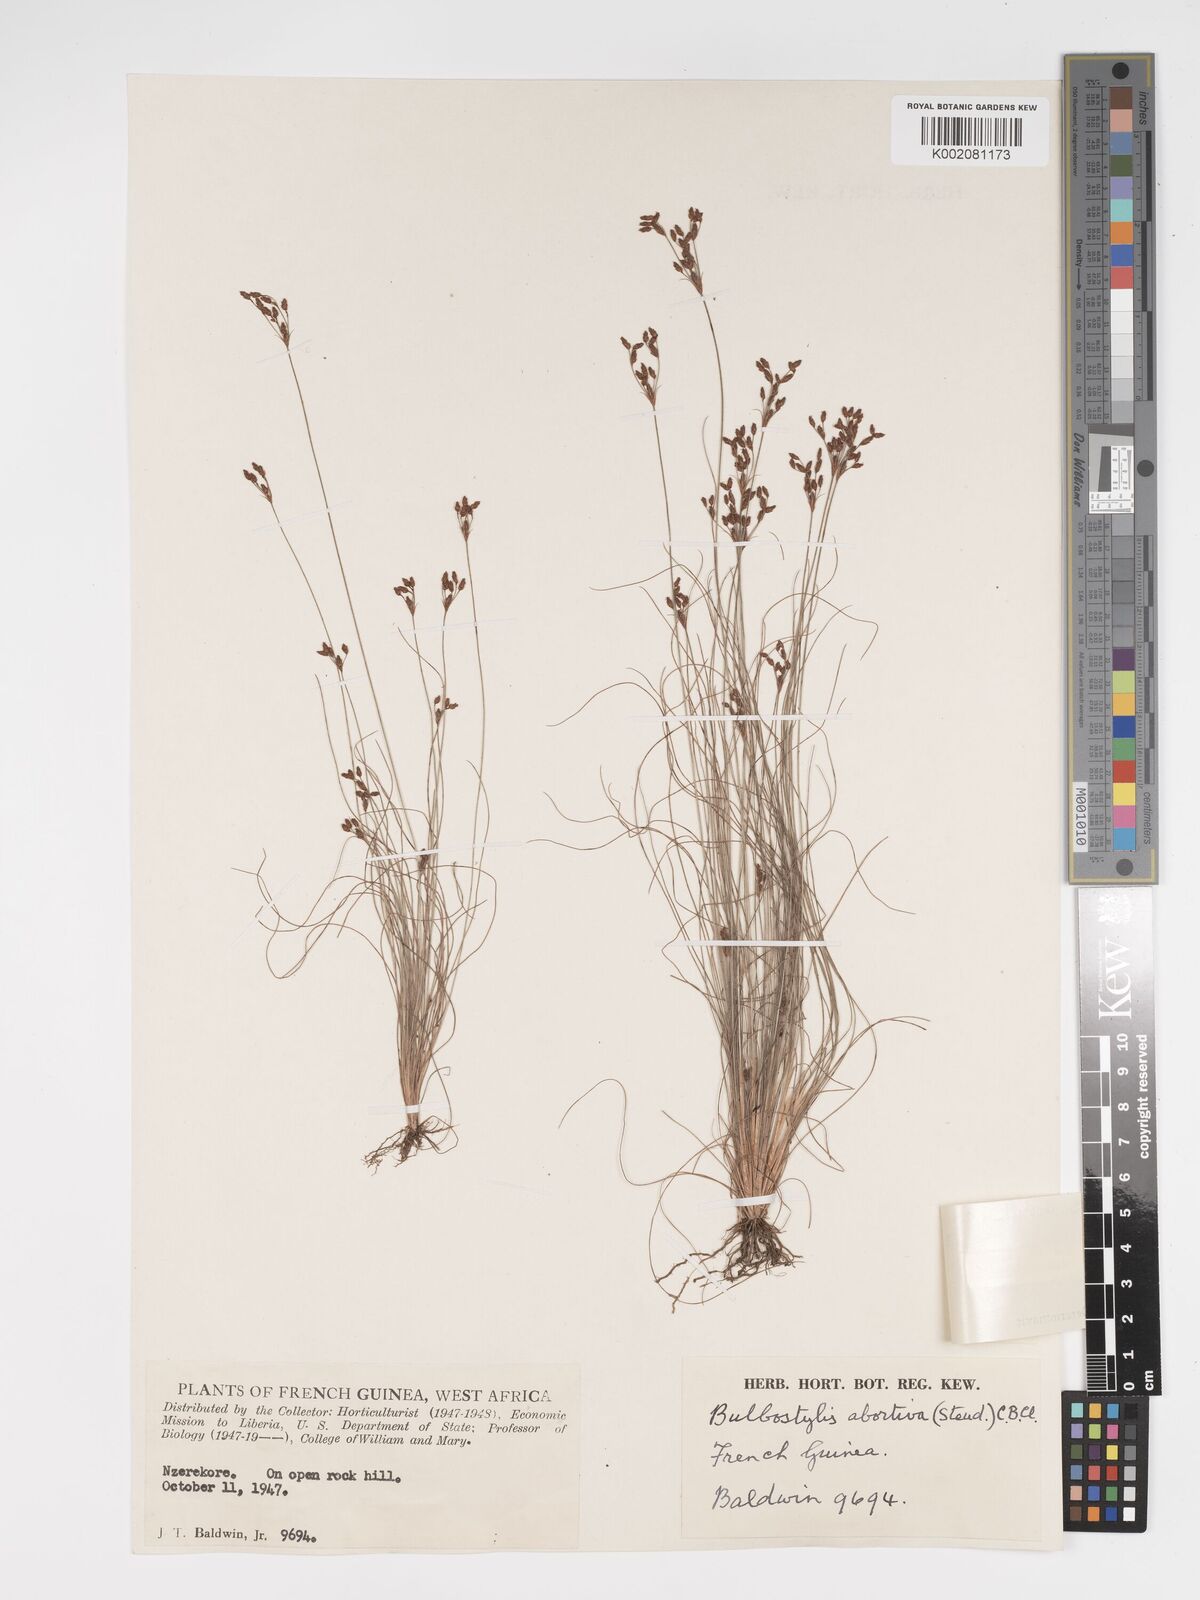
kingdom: Plantae
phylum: Tracheophyta
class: Liliopsida
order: Poales
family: Cyperaceae
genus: Bulbostylis
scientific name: Bulbostylis congolensis
